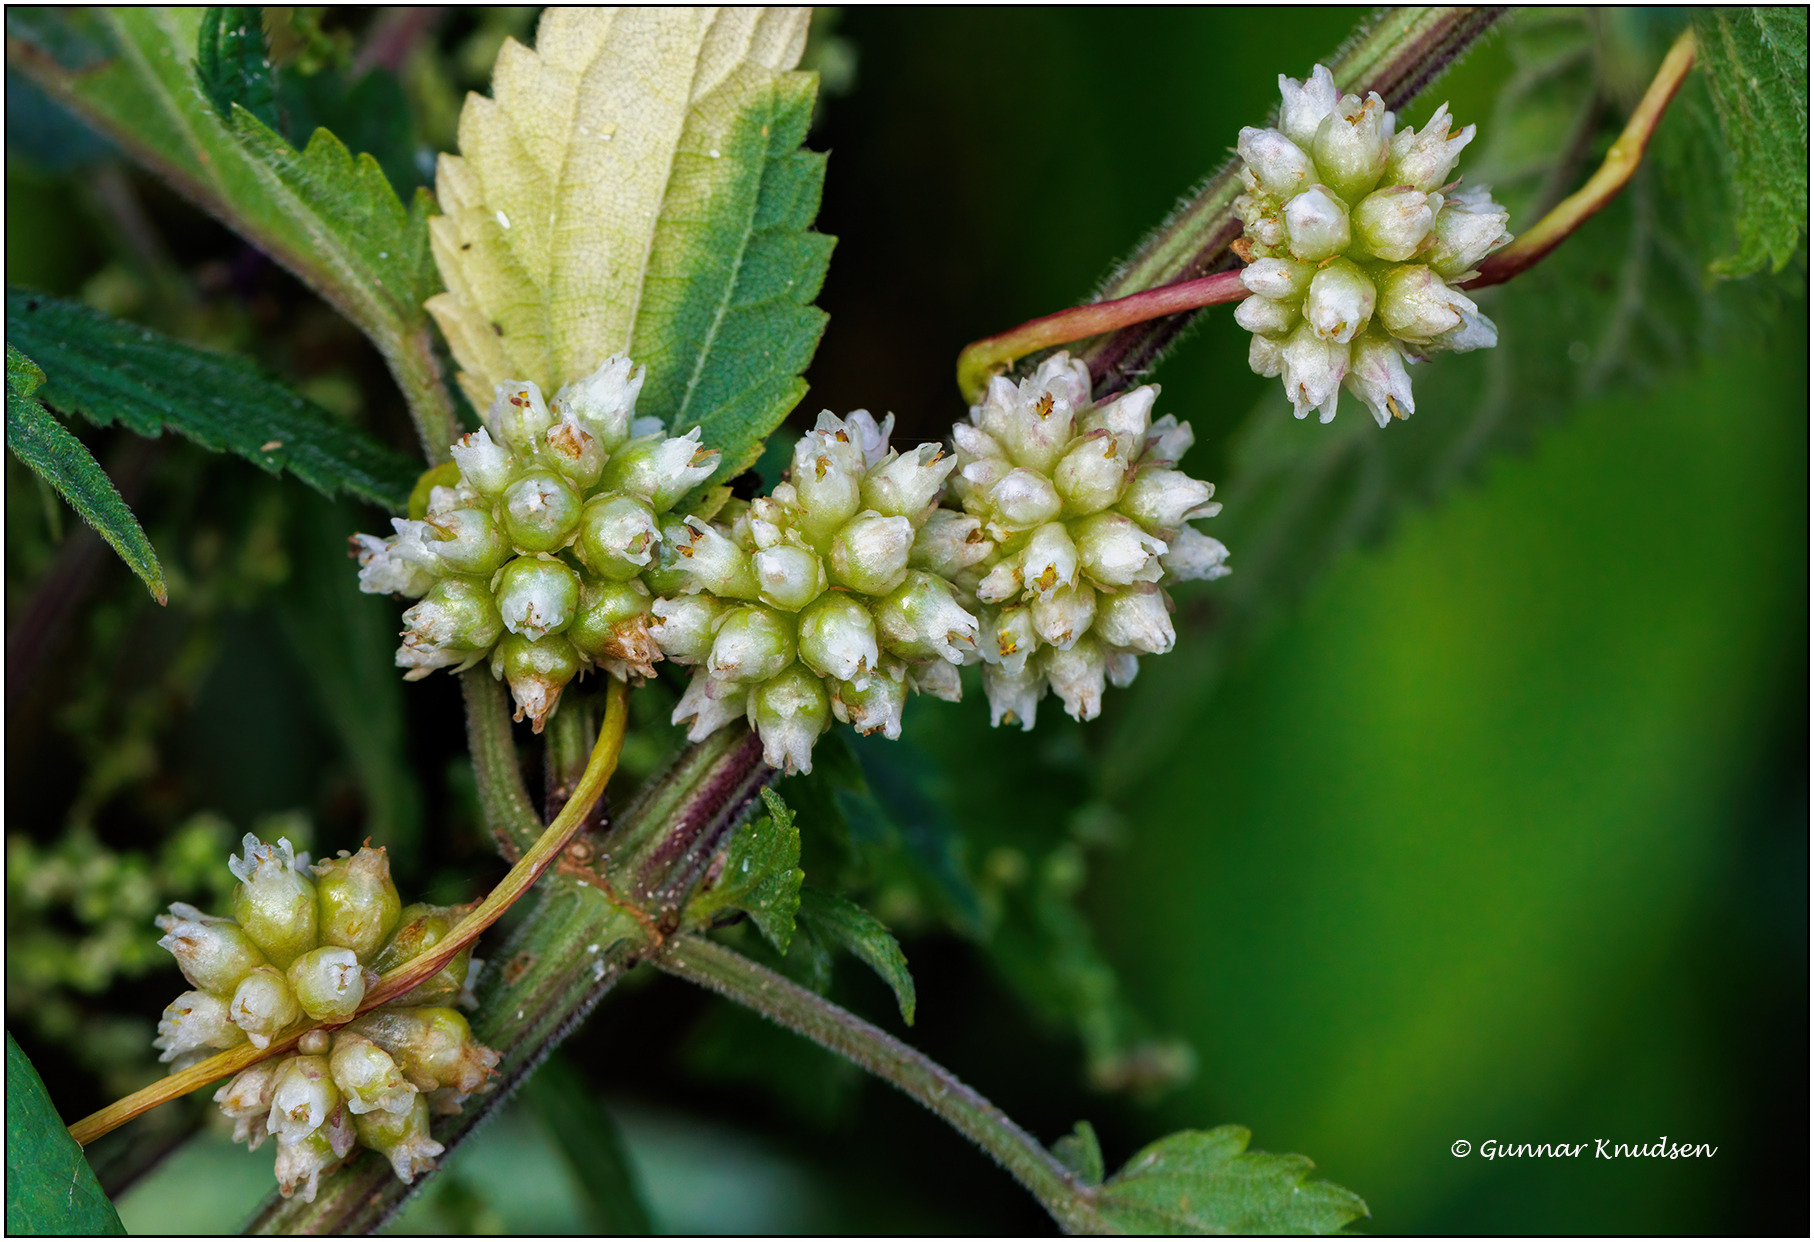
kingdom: Plantae
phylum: Tracheophyta
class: Magnoliopsida
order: Solanales
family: Convolvulaceae
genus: Cuscuta
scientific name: Cuscuta europaea
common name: Nælde-silke
